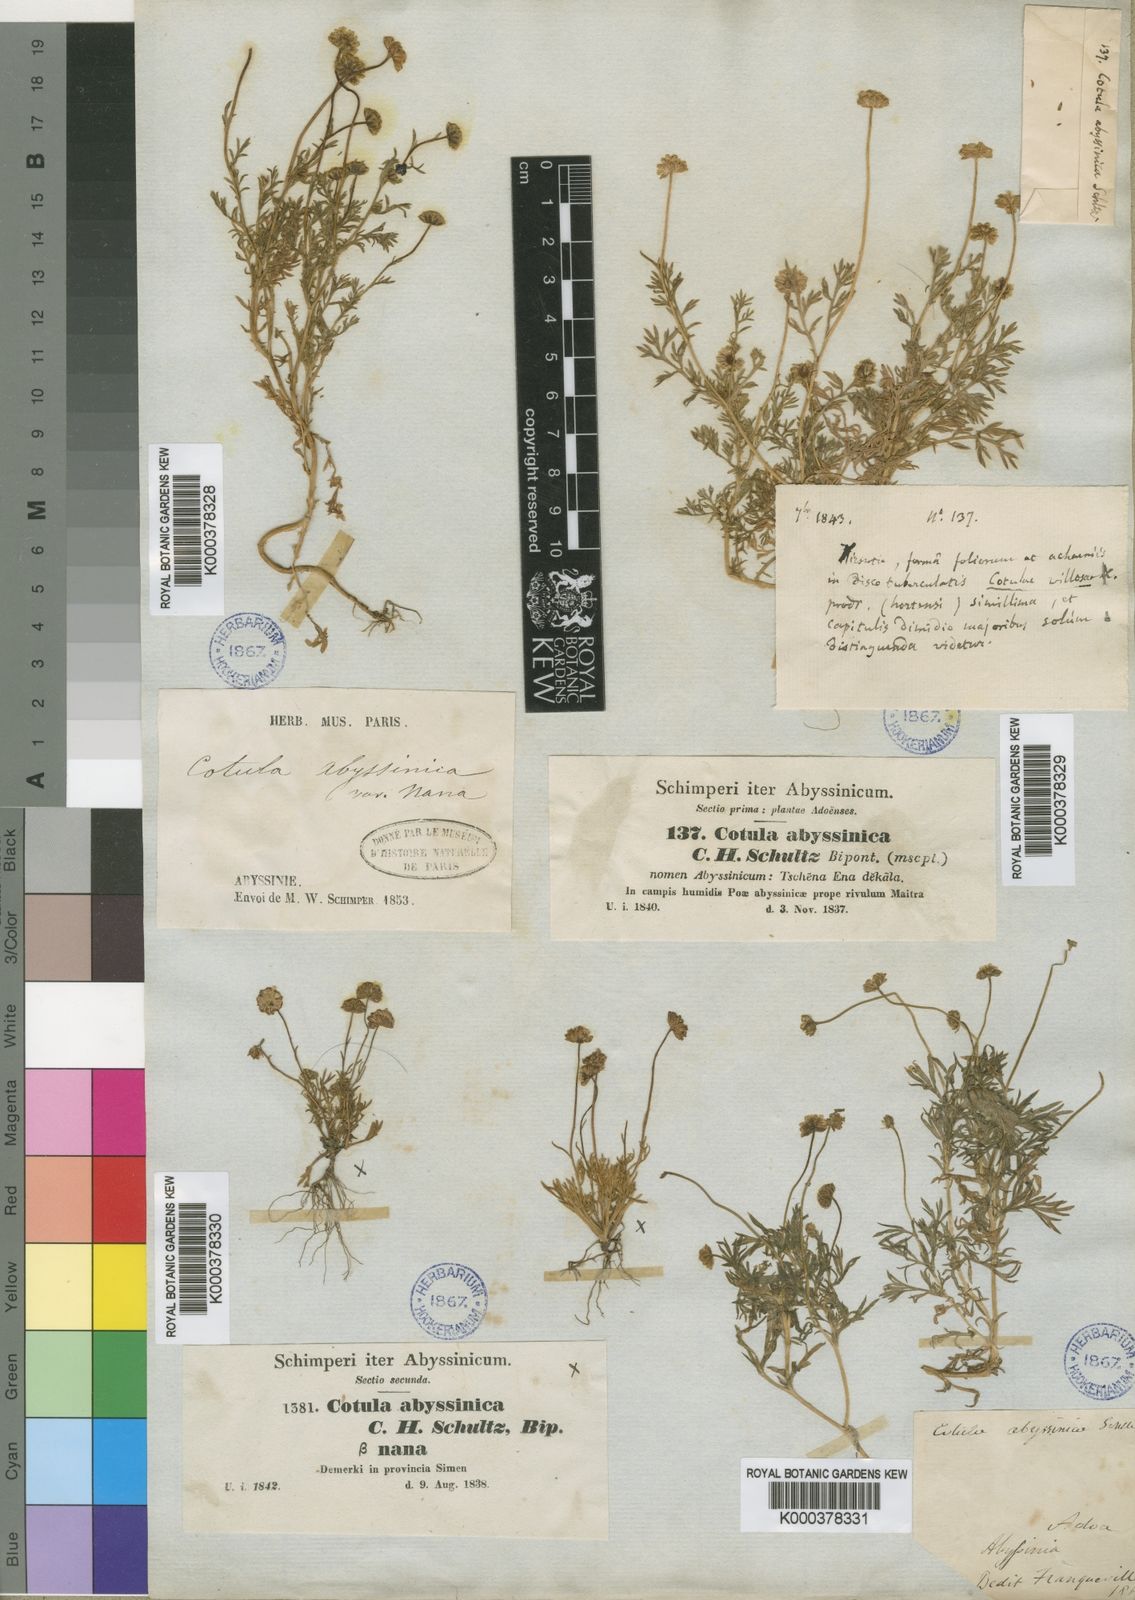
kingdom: Plantae
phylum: Tracheophyta
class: Magnoliopsida
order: Asterales
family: Asteraceae
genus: Cotula
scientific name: Cotula abyssinica
